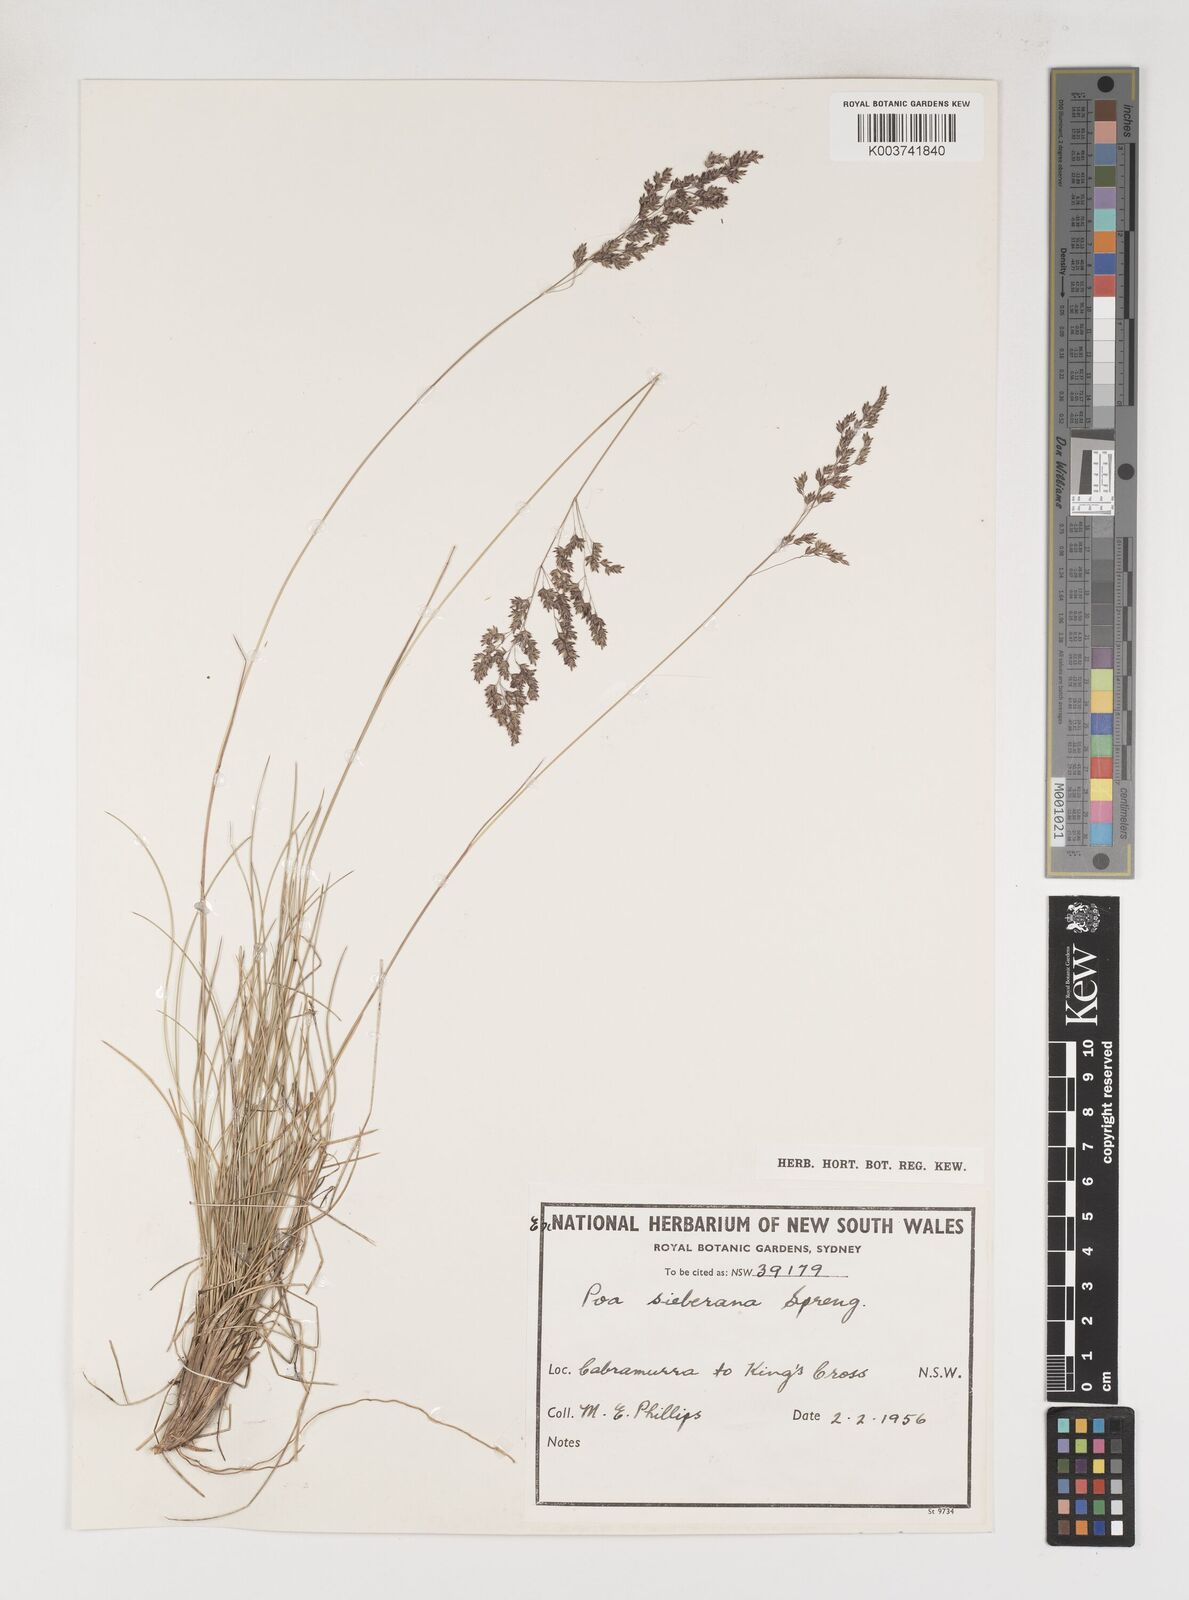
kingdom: Plantae
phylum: Tracheophyta
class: Liliopsida
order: Poales
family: Poaceae
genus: Poa
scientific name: Poa sieberiana
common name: Tussock poa
